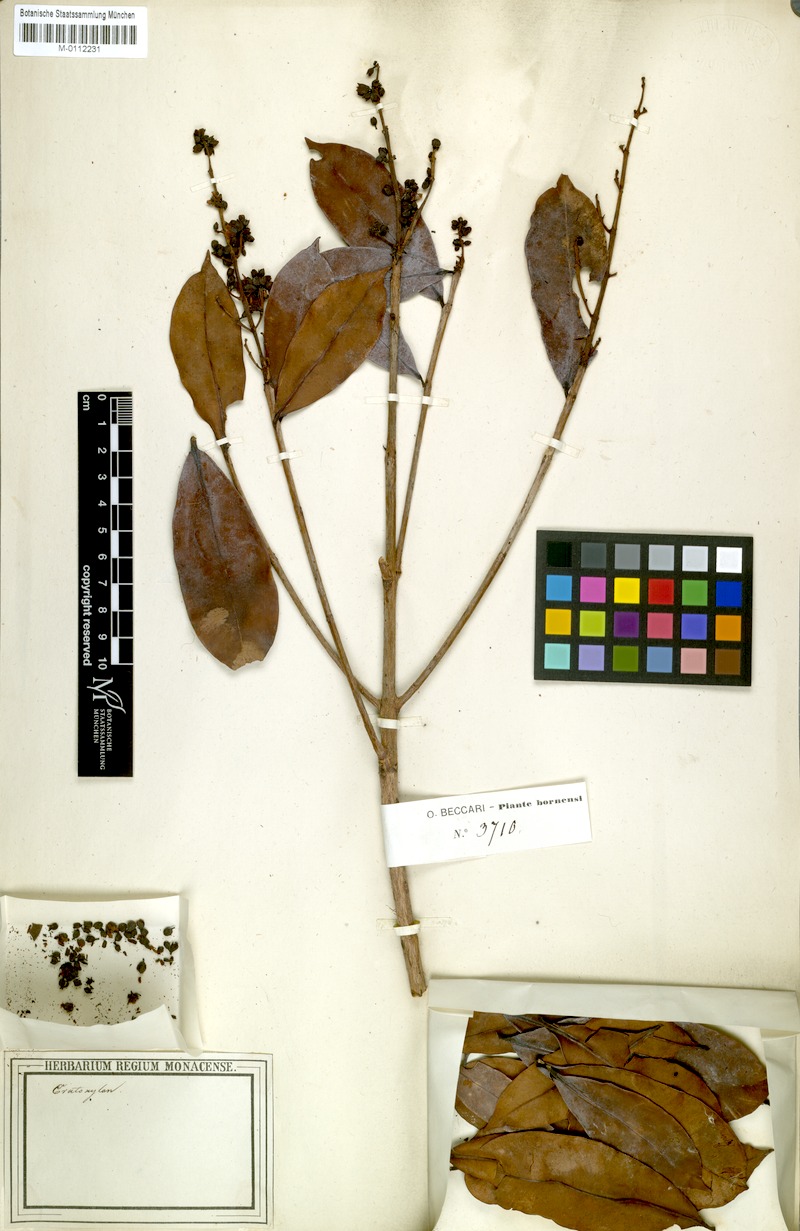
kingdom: Plantae
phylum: Tracheophyta
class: Magnoliopsida
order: Malpighiales
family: Hypericaceae
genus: Cratoxylum
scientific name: Cratoxylum
